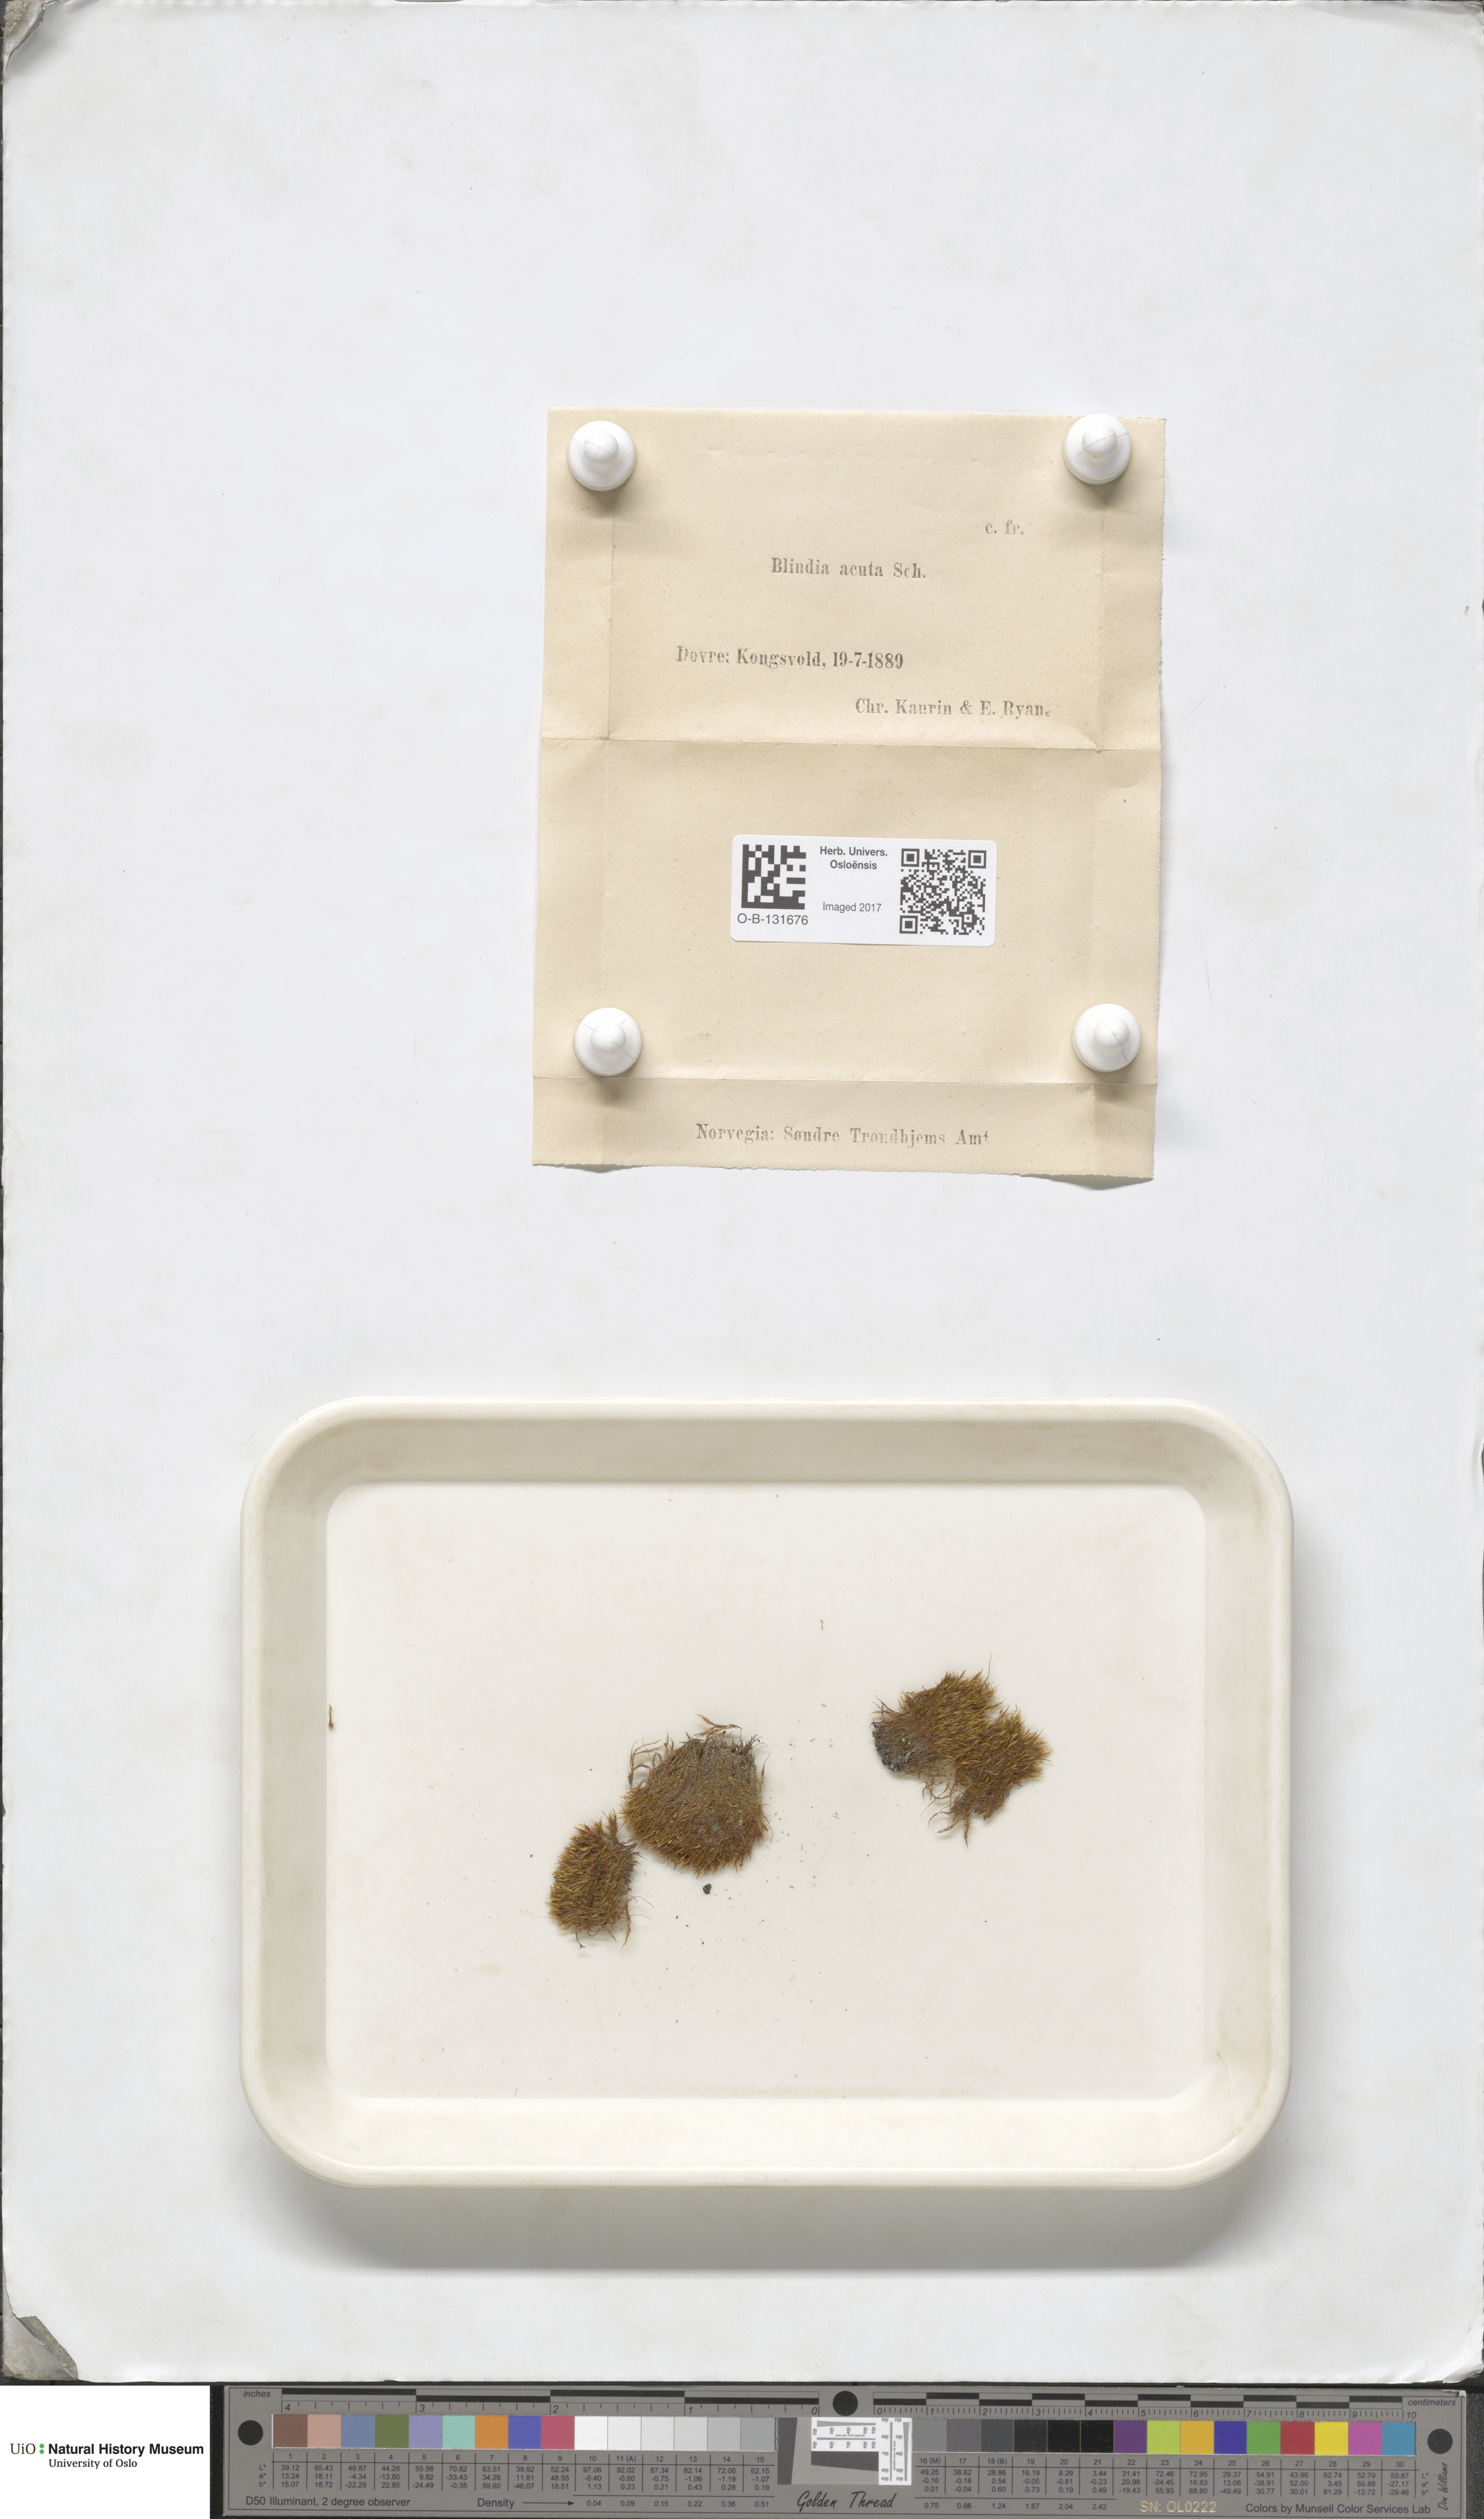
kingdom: Plantae
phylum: Bryophyta
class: Bryopsida
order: Grimmiales
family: Seligeriaceae
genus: Blindia
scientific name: Blindia acuta
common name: Sharp-leaved blind's moss
